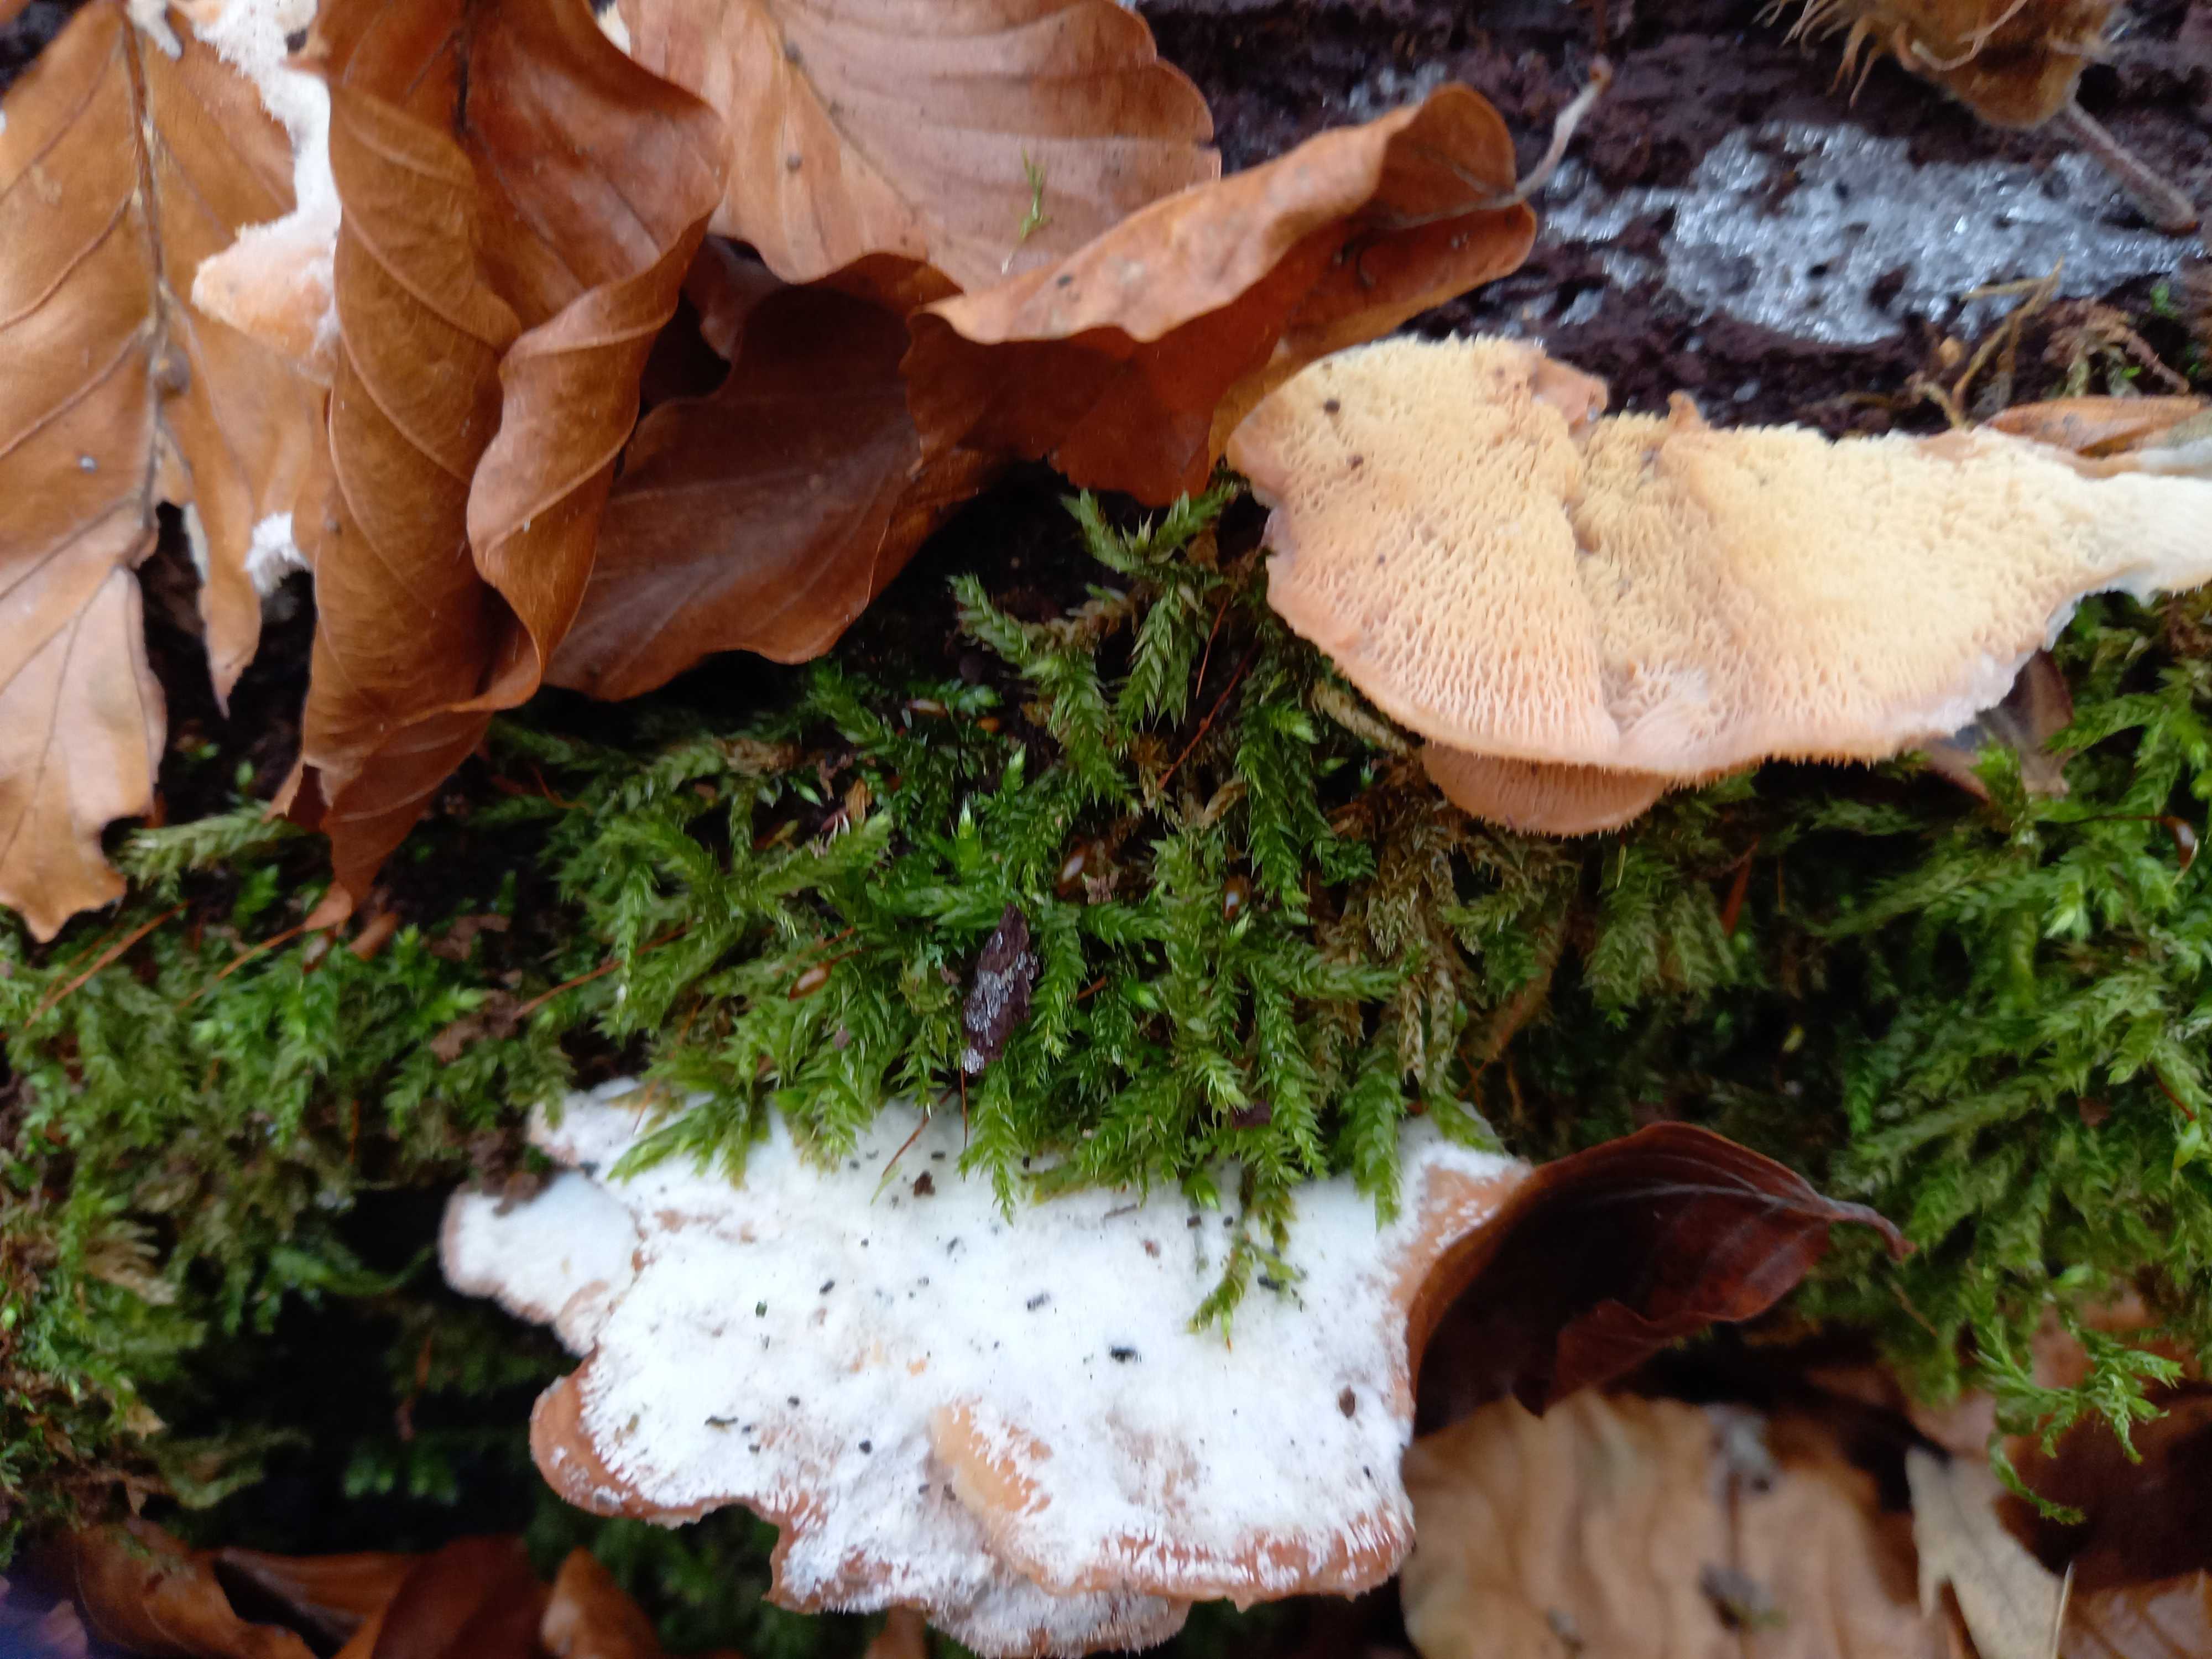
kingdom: Fungi
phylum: Basidiomycota
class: Agaricomycetes
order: Polyporales
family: Meruliaceae
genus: Phlebia
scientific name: Phlebia tremellosa
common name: bævrende åresvamp
